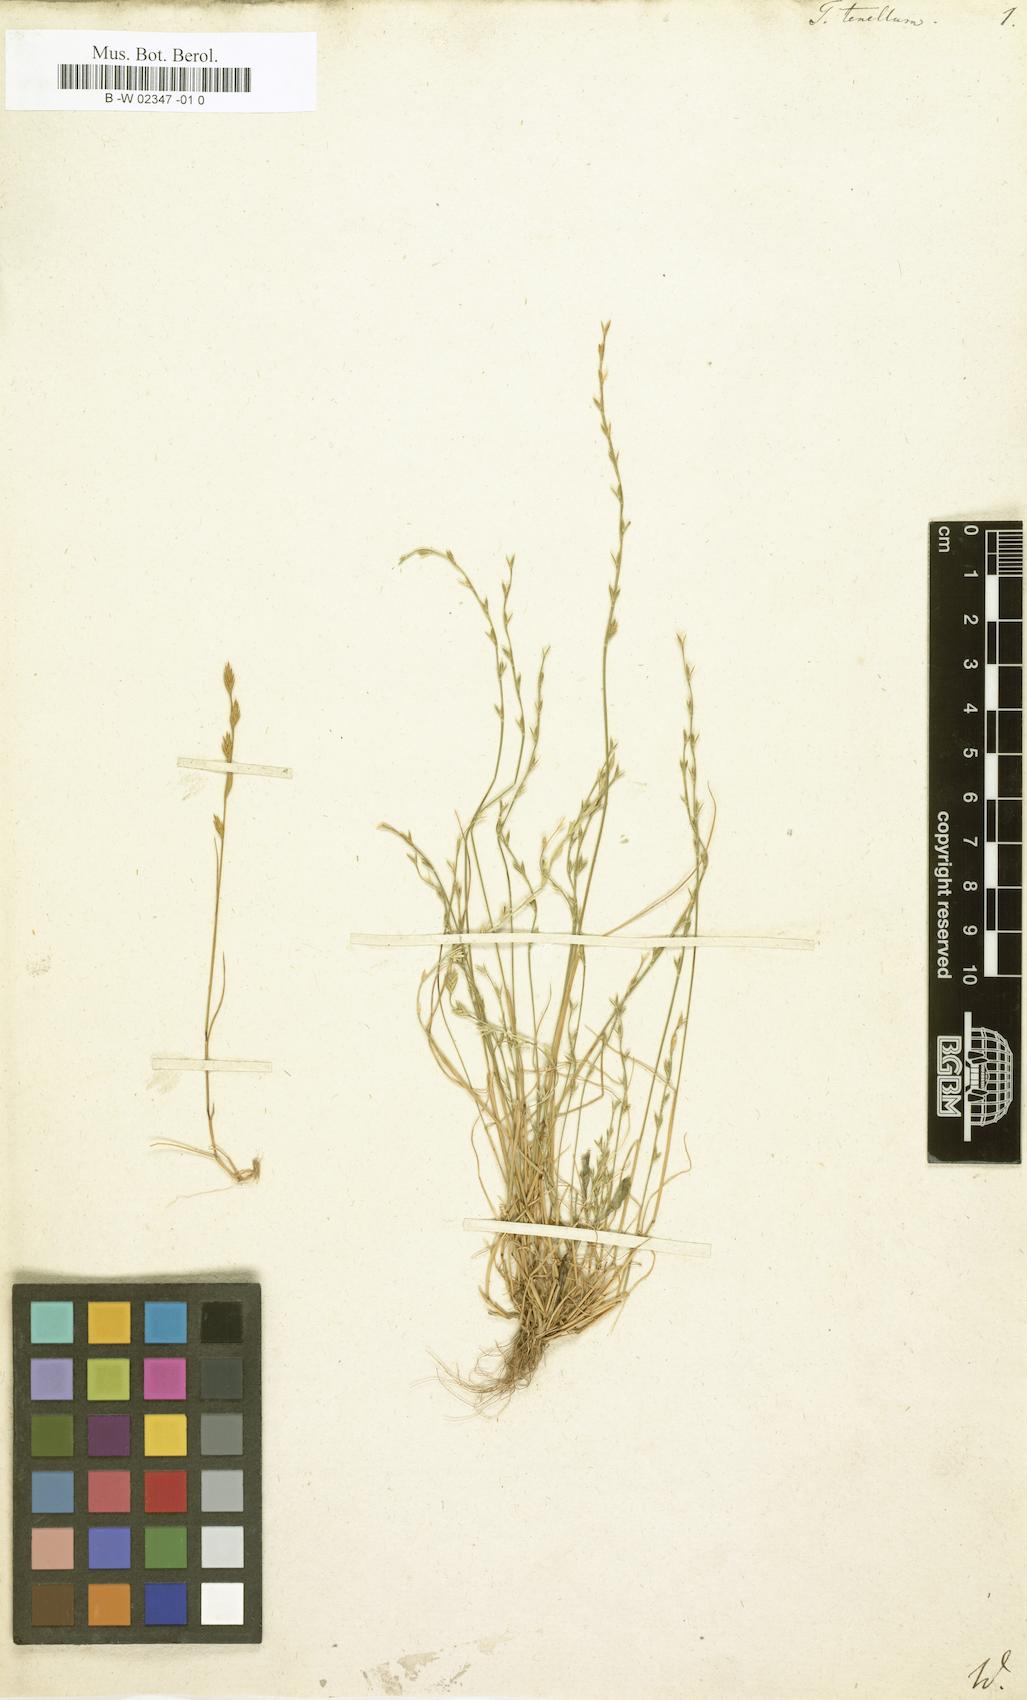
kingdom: Plantae
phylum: Tracheophyta
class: Liliopsida
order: Poales
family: Poaceae
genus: Triticum
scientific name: Triticum tenellum
